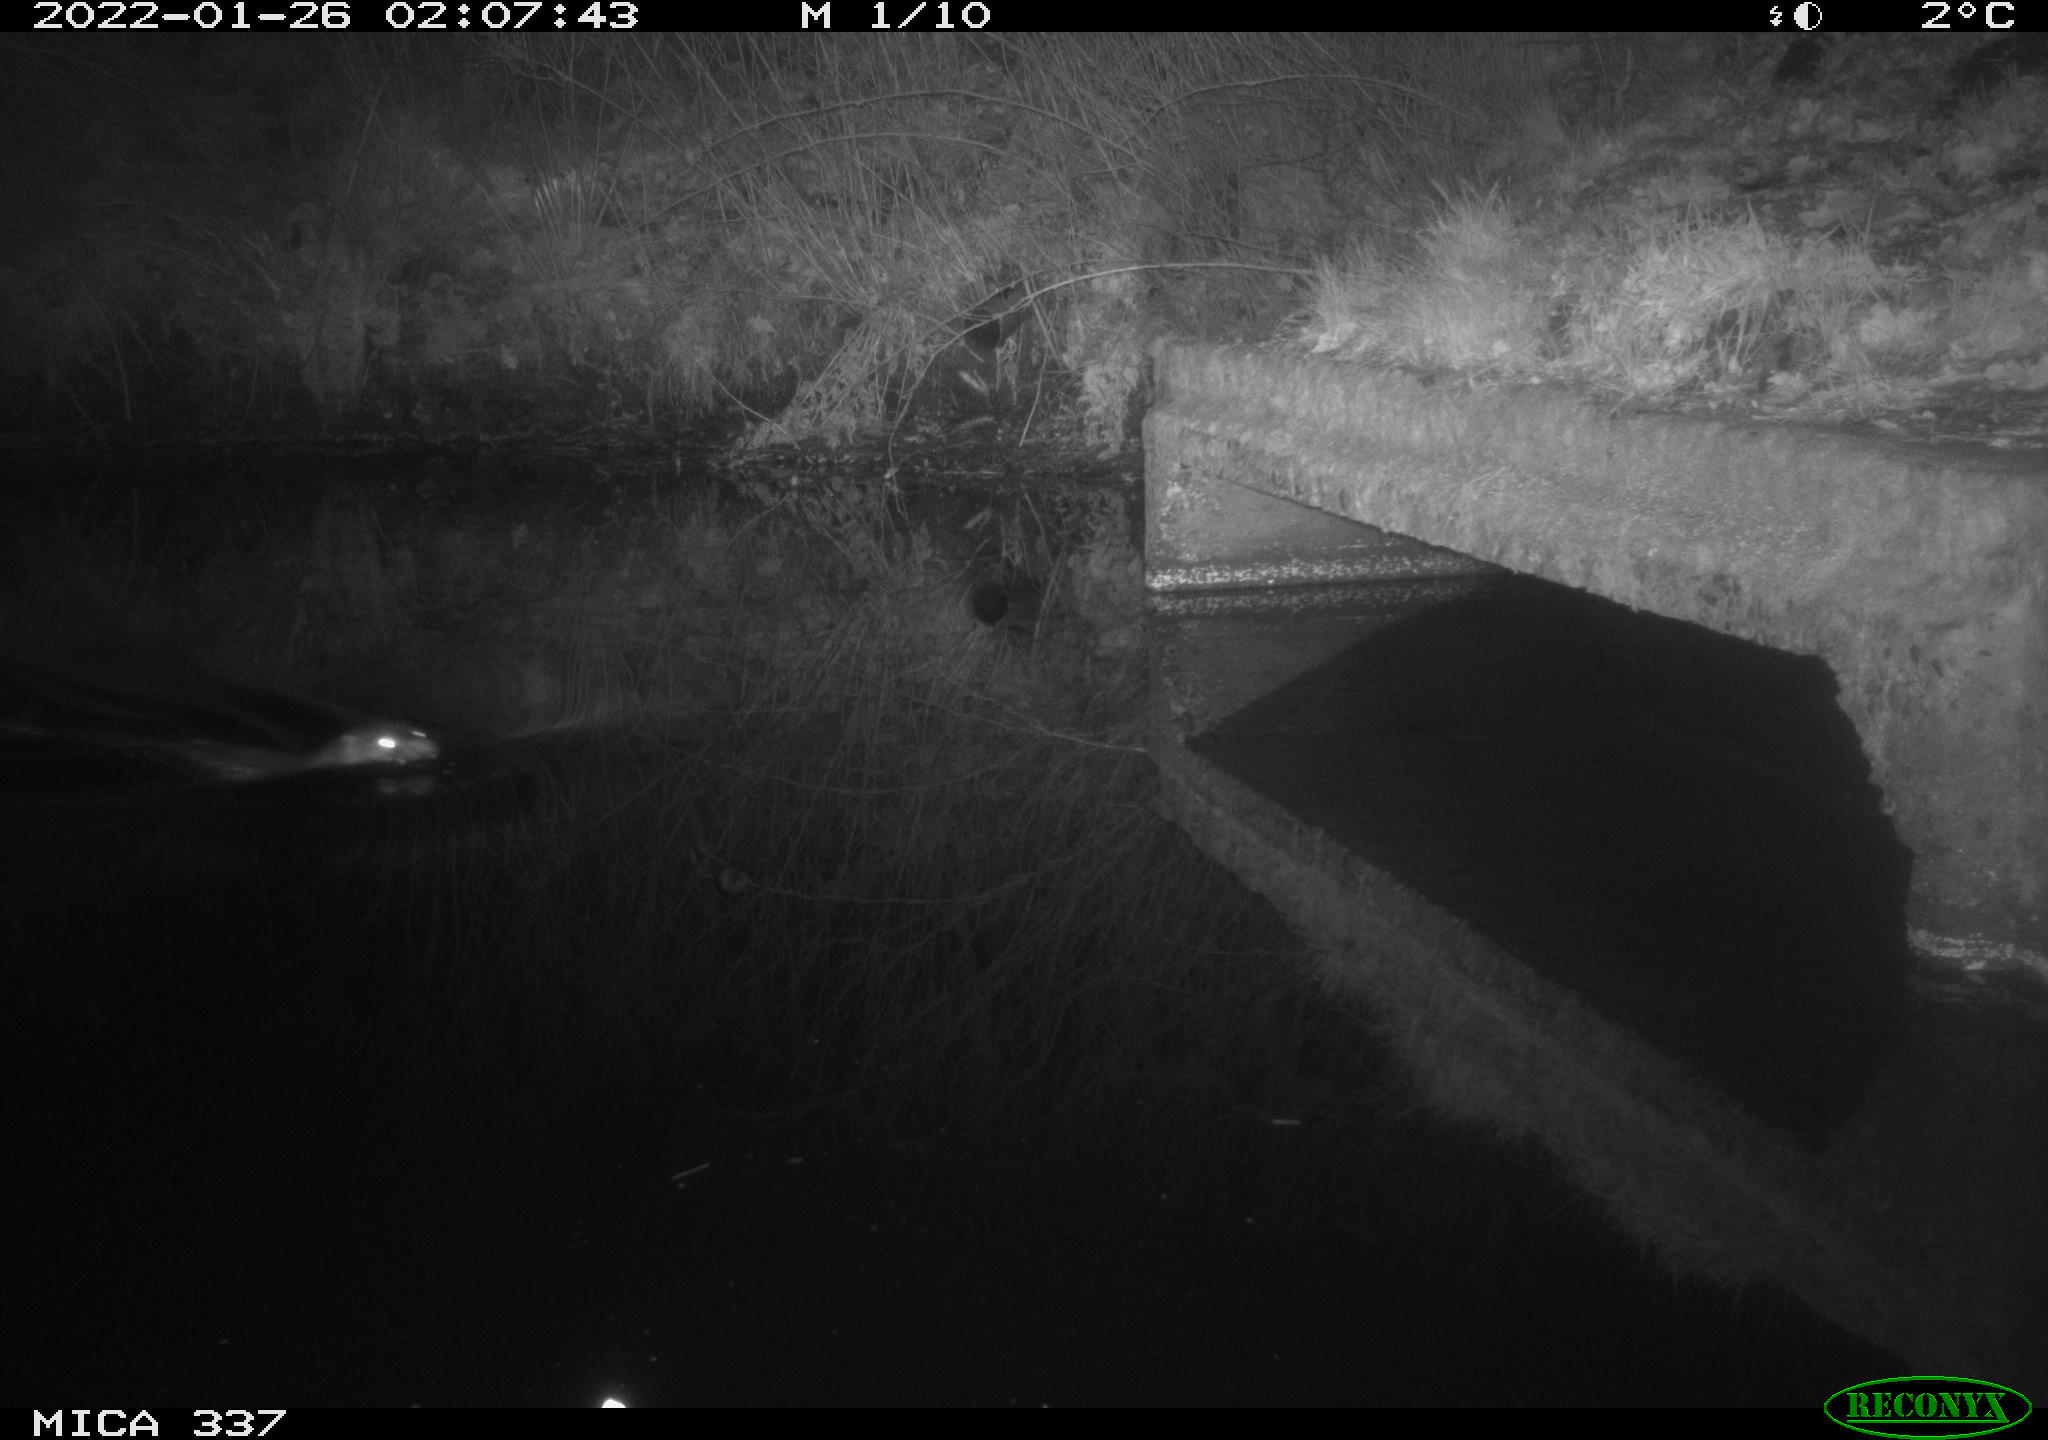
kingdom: Animalia
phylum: Chordata
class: Mammalia
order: Carnivora
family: Mustelidae
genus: Lutra
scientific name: Lutra lutra
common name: European otter
